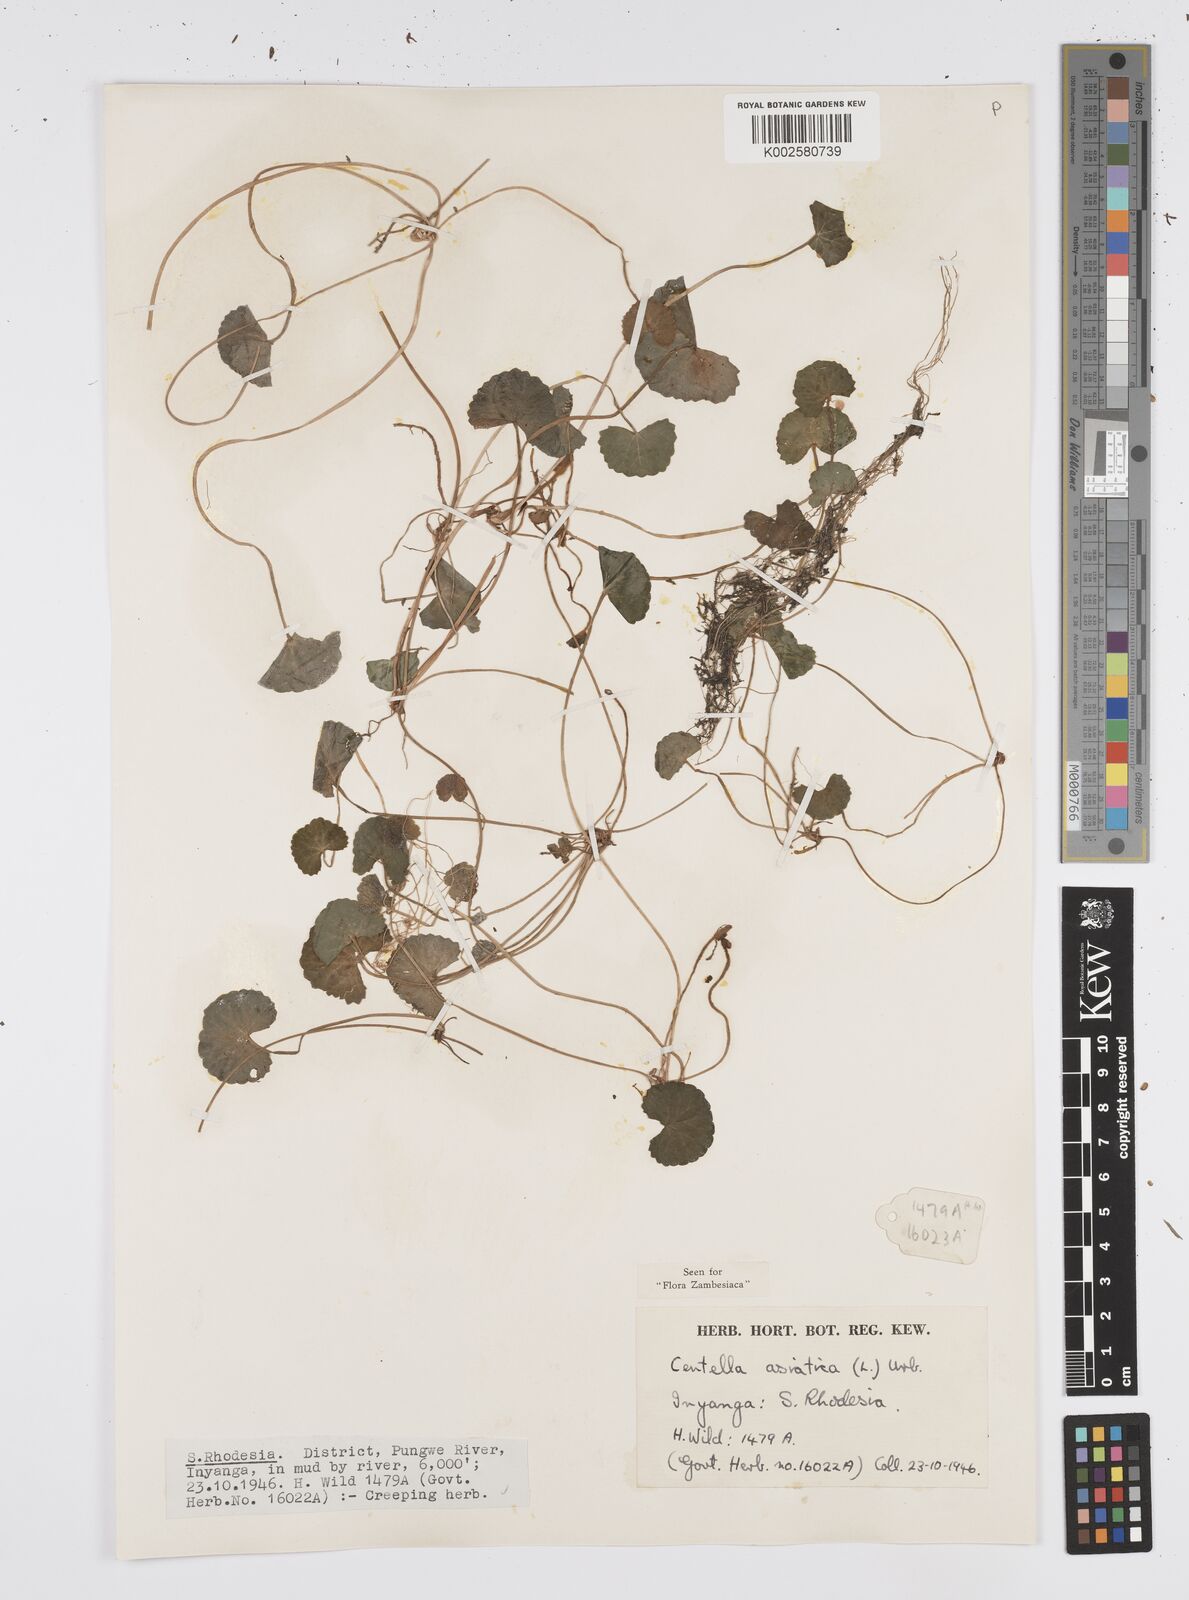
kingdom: Plantae
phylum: Tracheophyta
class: Magnoliopsida
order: Apiales
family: Apiaceae
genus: Centella
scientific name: Centella asiatica
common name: Spadeleaf
